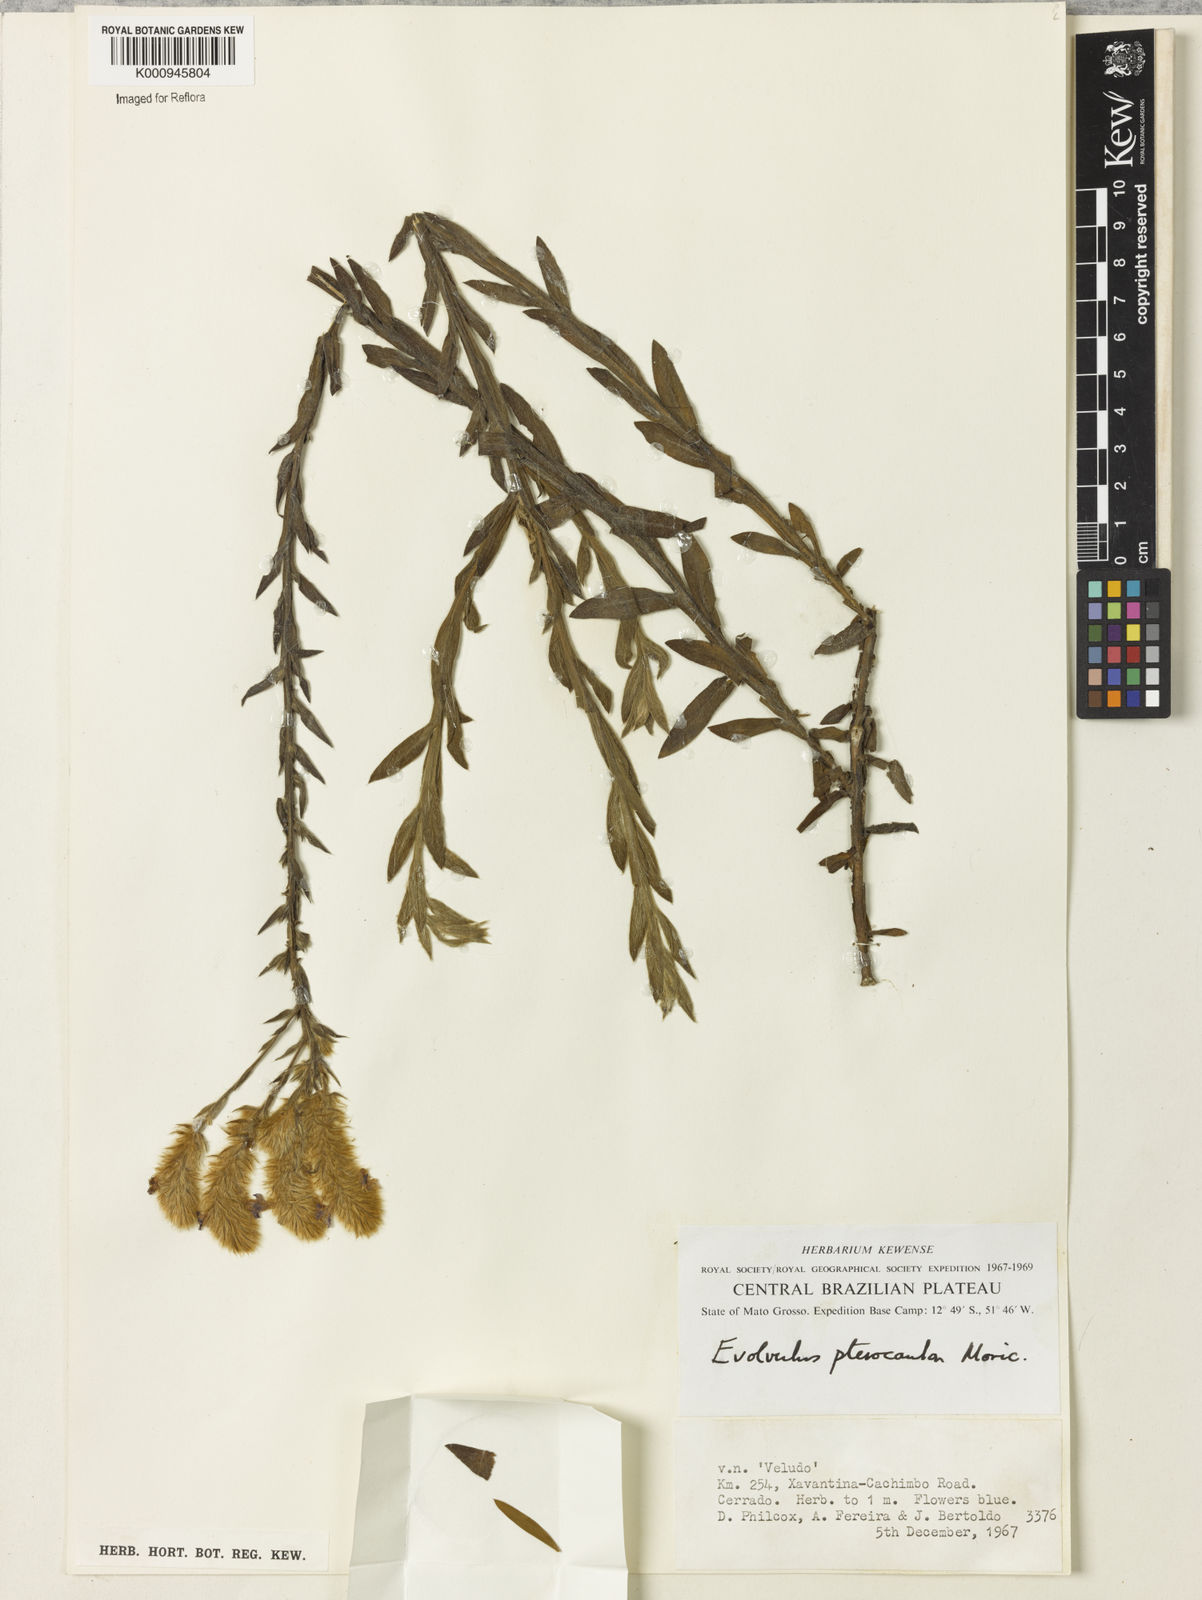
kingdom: Plantae
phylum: Tracheophyta
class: Magnoliopsida
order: Solanales
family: Convolvulaceae
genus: Evolvulus
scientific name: Evolvulus pterocaulon
